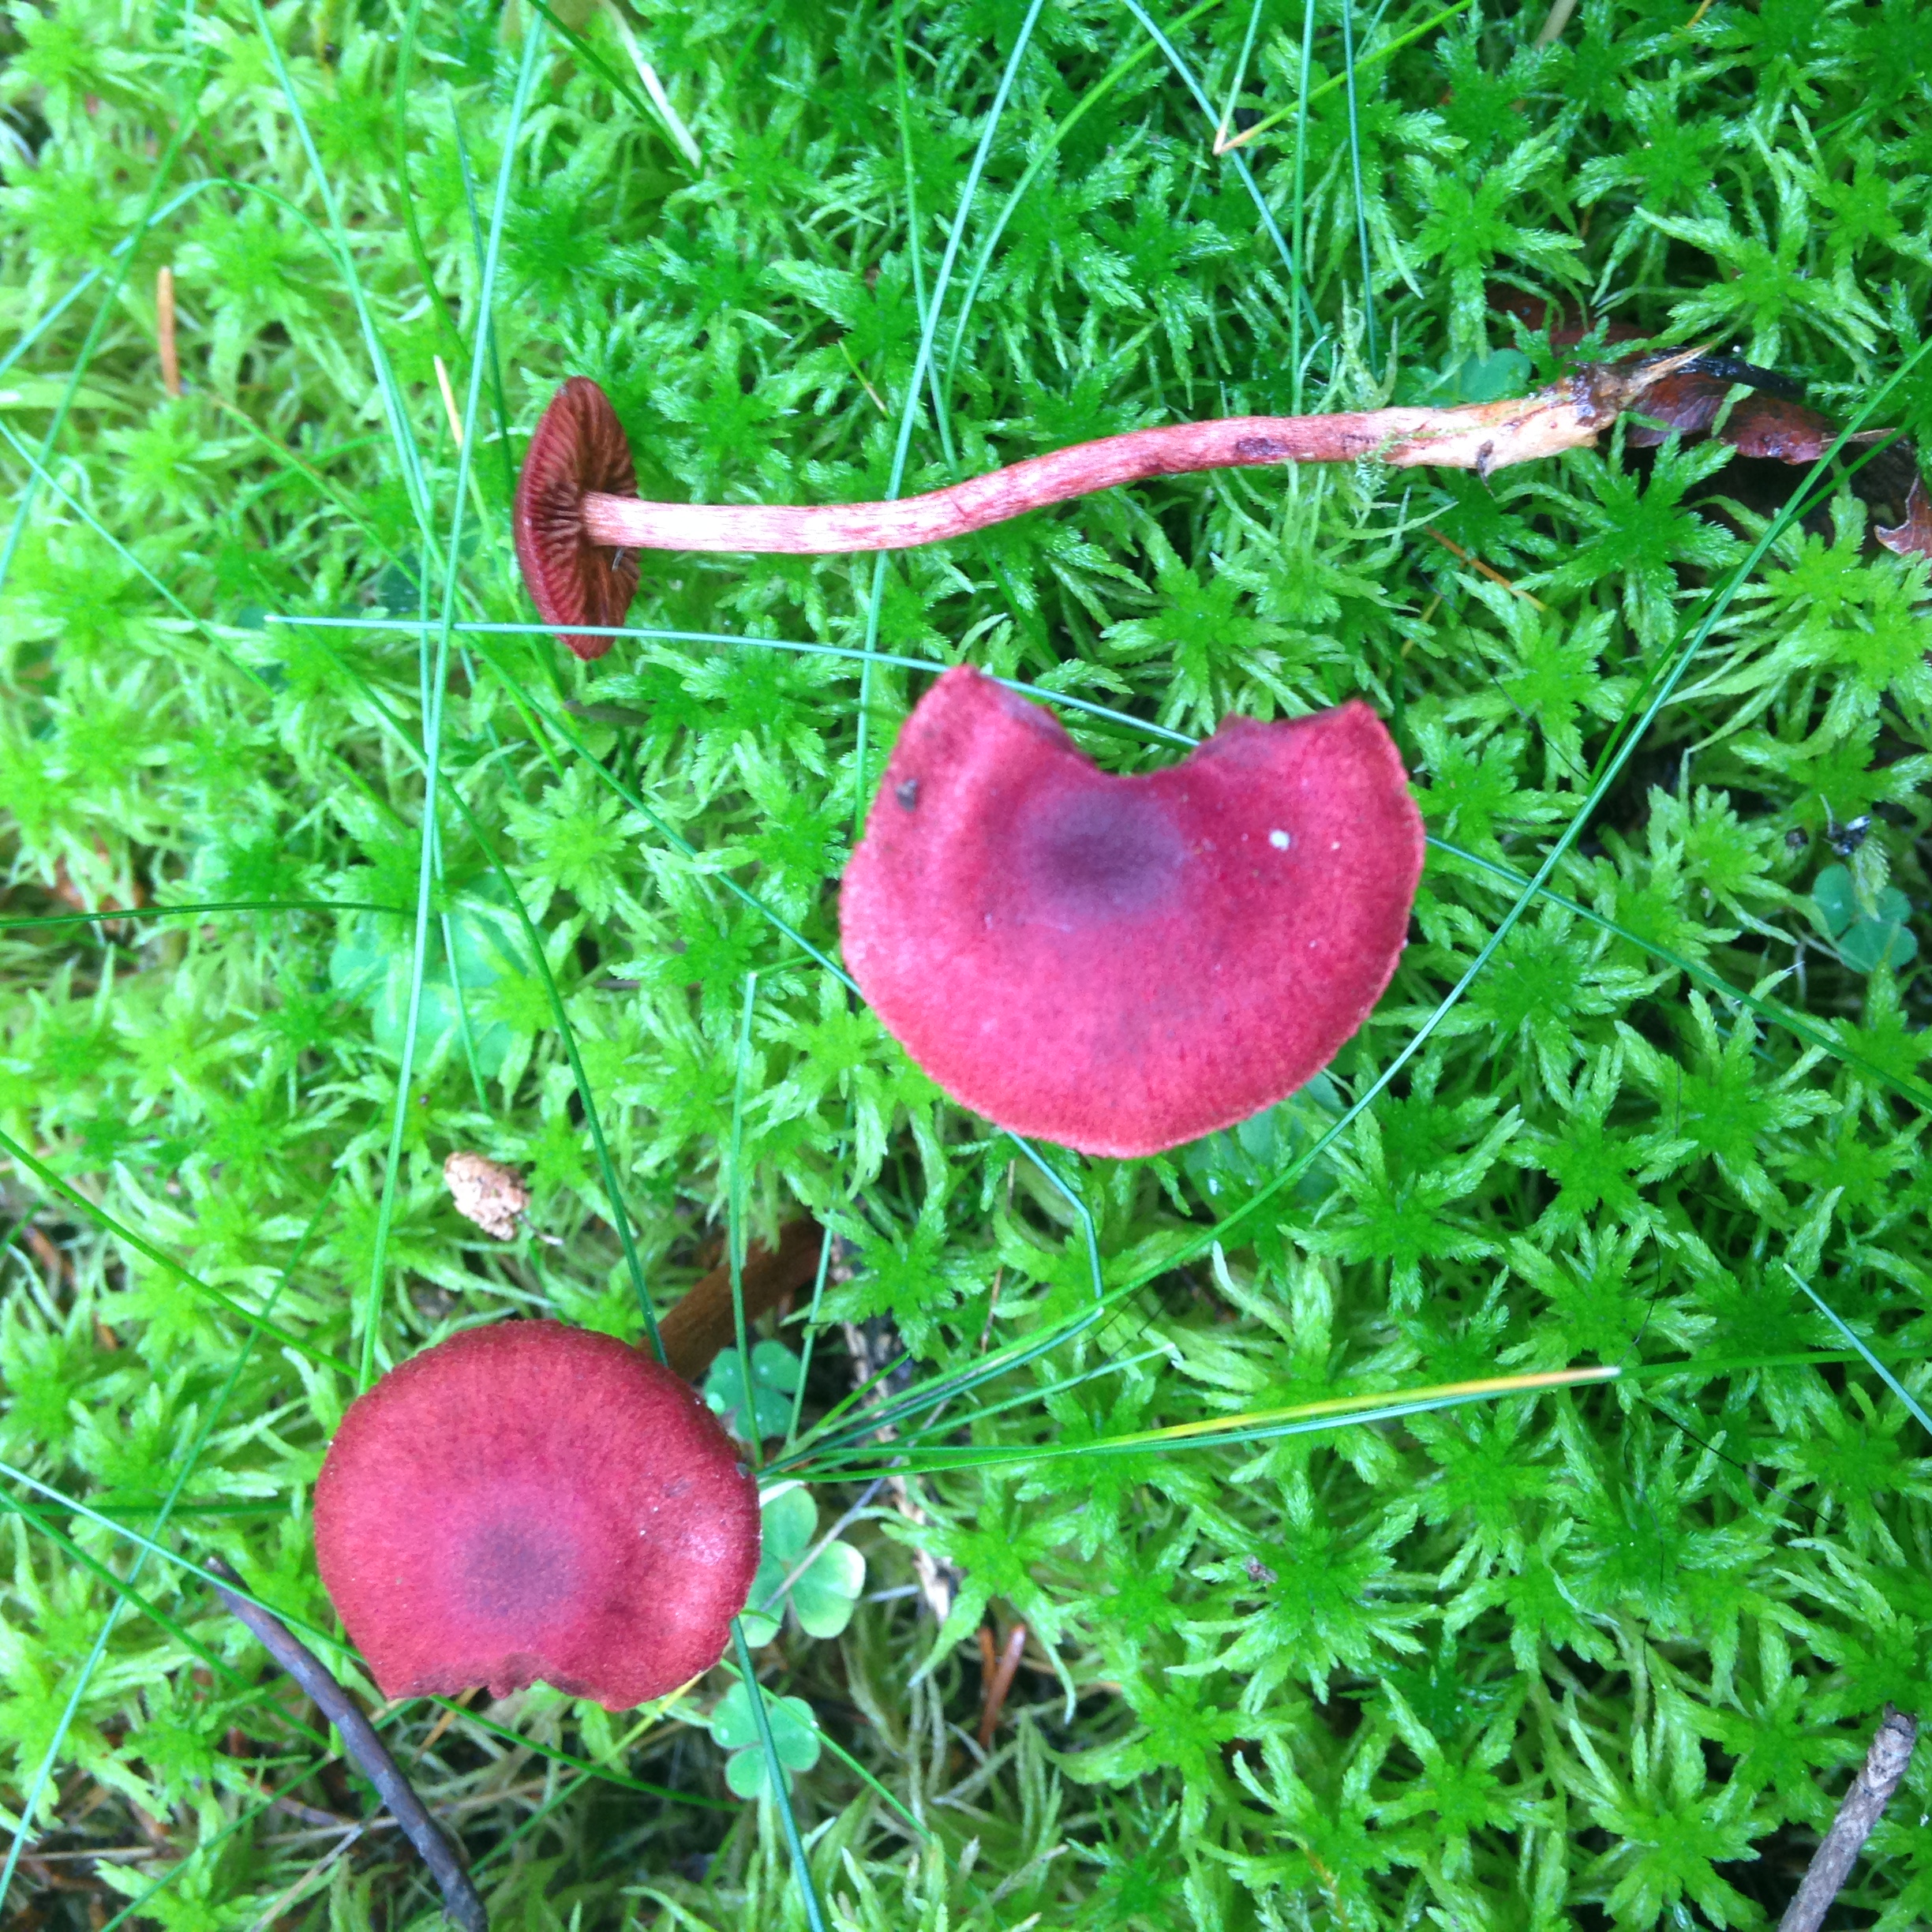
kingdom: Fungi
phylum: Basidiomycota
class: Agaricomycetes
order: Agaricales
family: Cortinariaceae
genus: Cortinarius
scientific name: Cortinarius sanguineus
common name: Bloodred webcap
